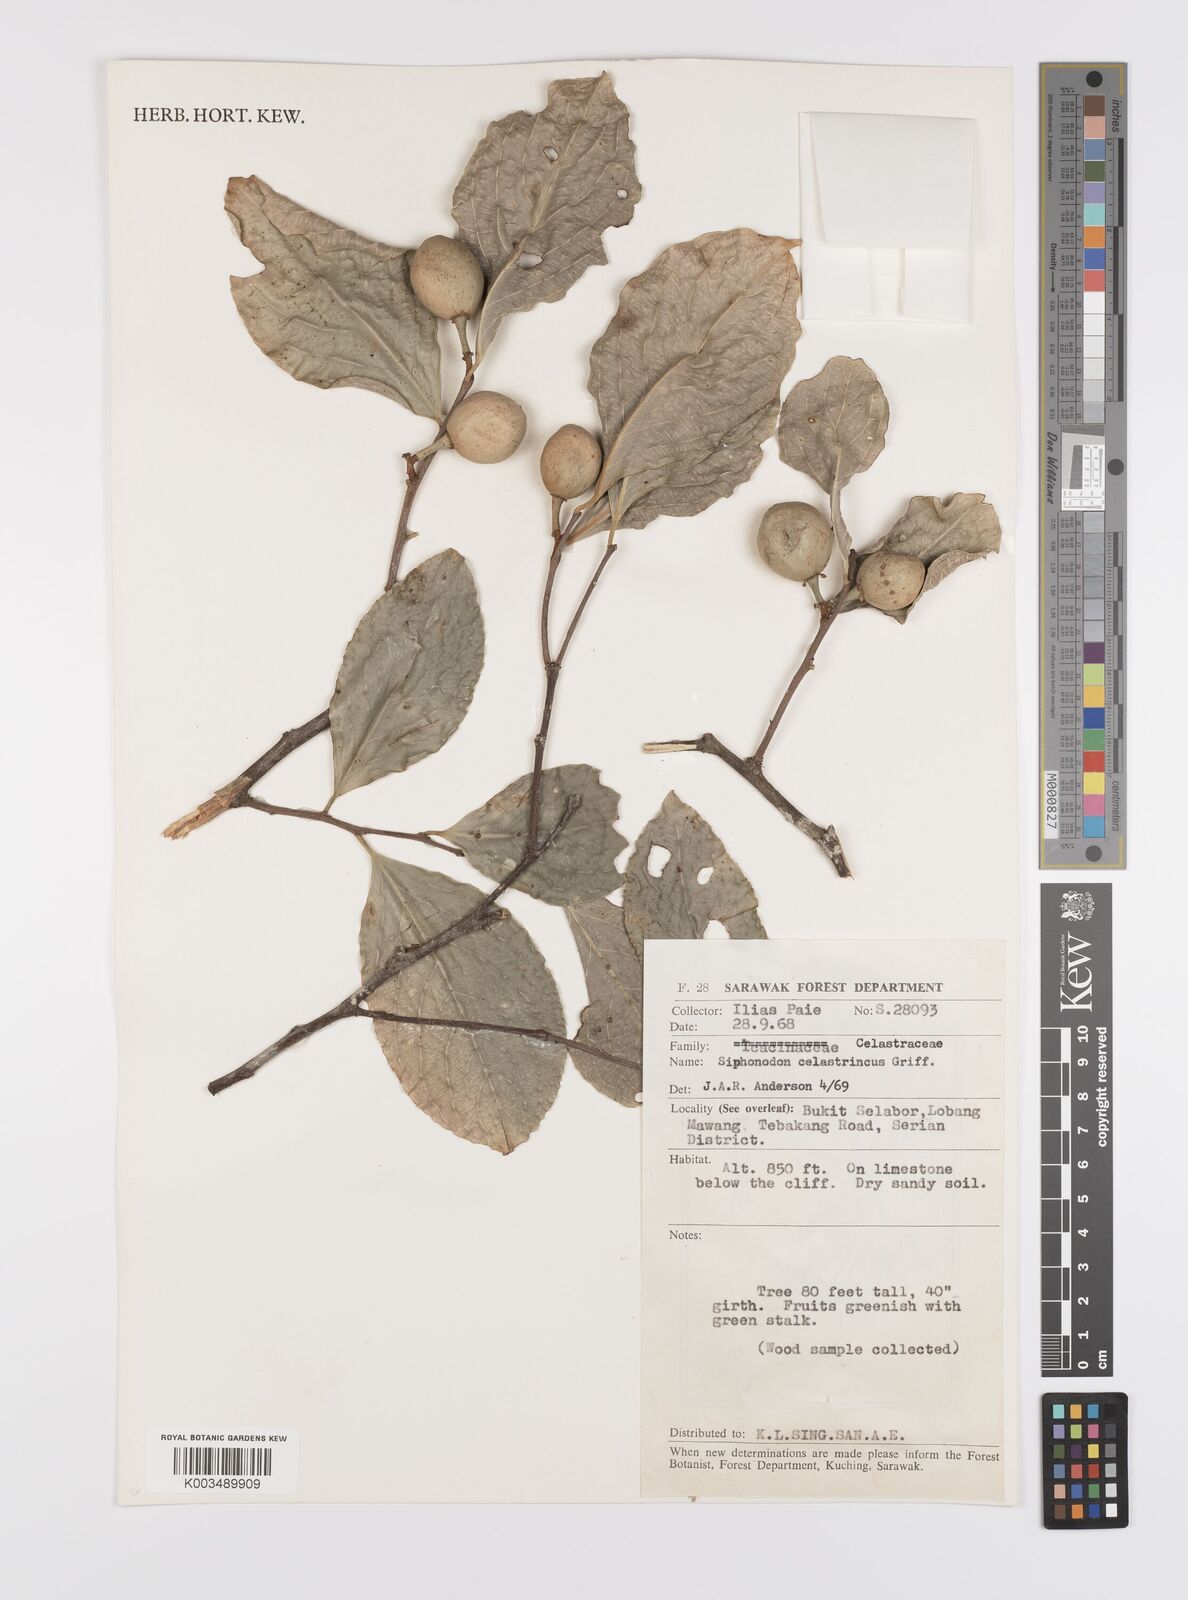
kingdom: Plantae
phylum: Tracheophyta
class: Magnoliopsida
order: Celastrales
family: Celastraceae
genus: Siphonodon
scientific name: Siphonodon celastrineus
